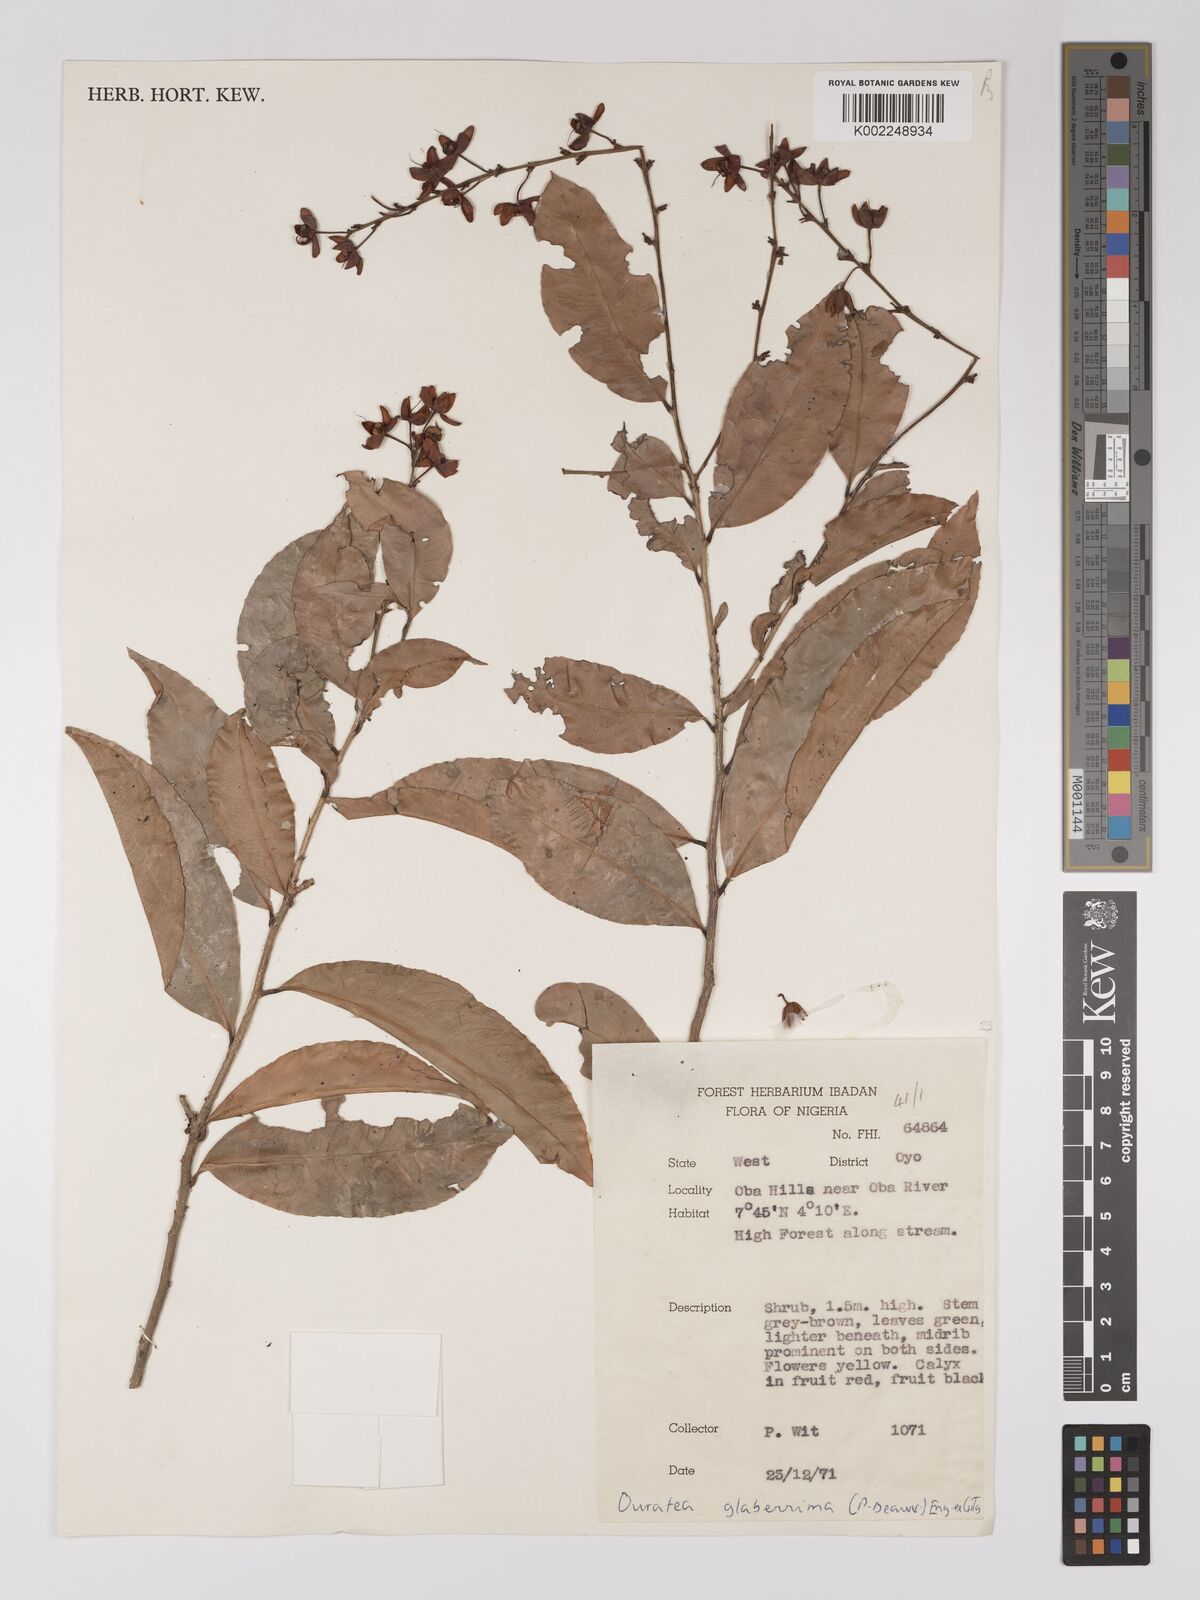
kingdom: Plantae
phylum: Tracheophyta
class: Magnoliopsida
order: Malpighiales
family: Ochnaceae
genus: Campylospermum
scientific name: Campylospermum glaberrimum
